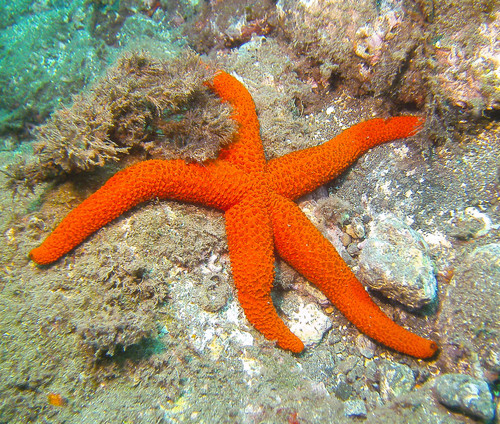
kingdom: Animalia
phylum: Echinodermata
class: Asteroidea
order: Spinulosida
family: Echinasteridae
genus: Echinaster
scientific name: Echinaster sepositus
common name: Red starfish
